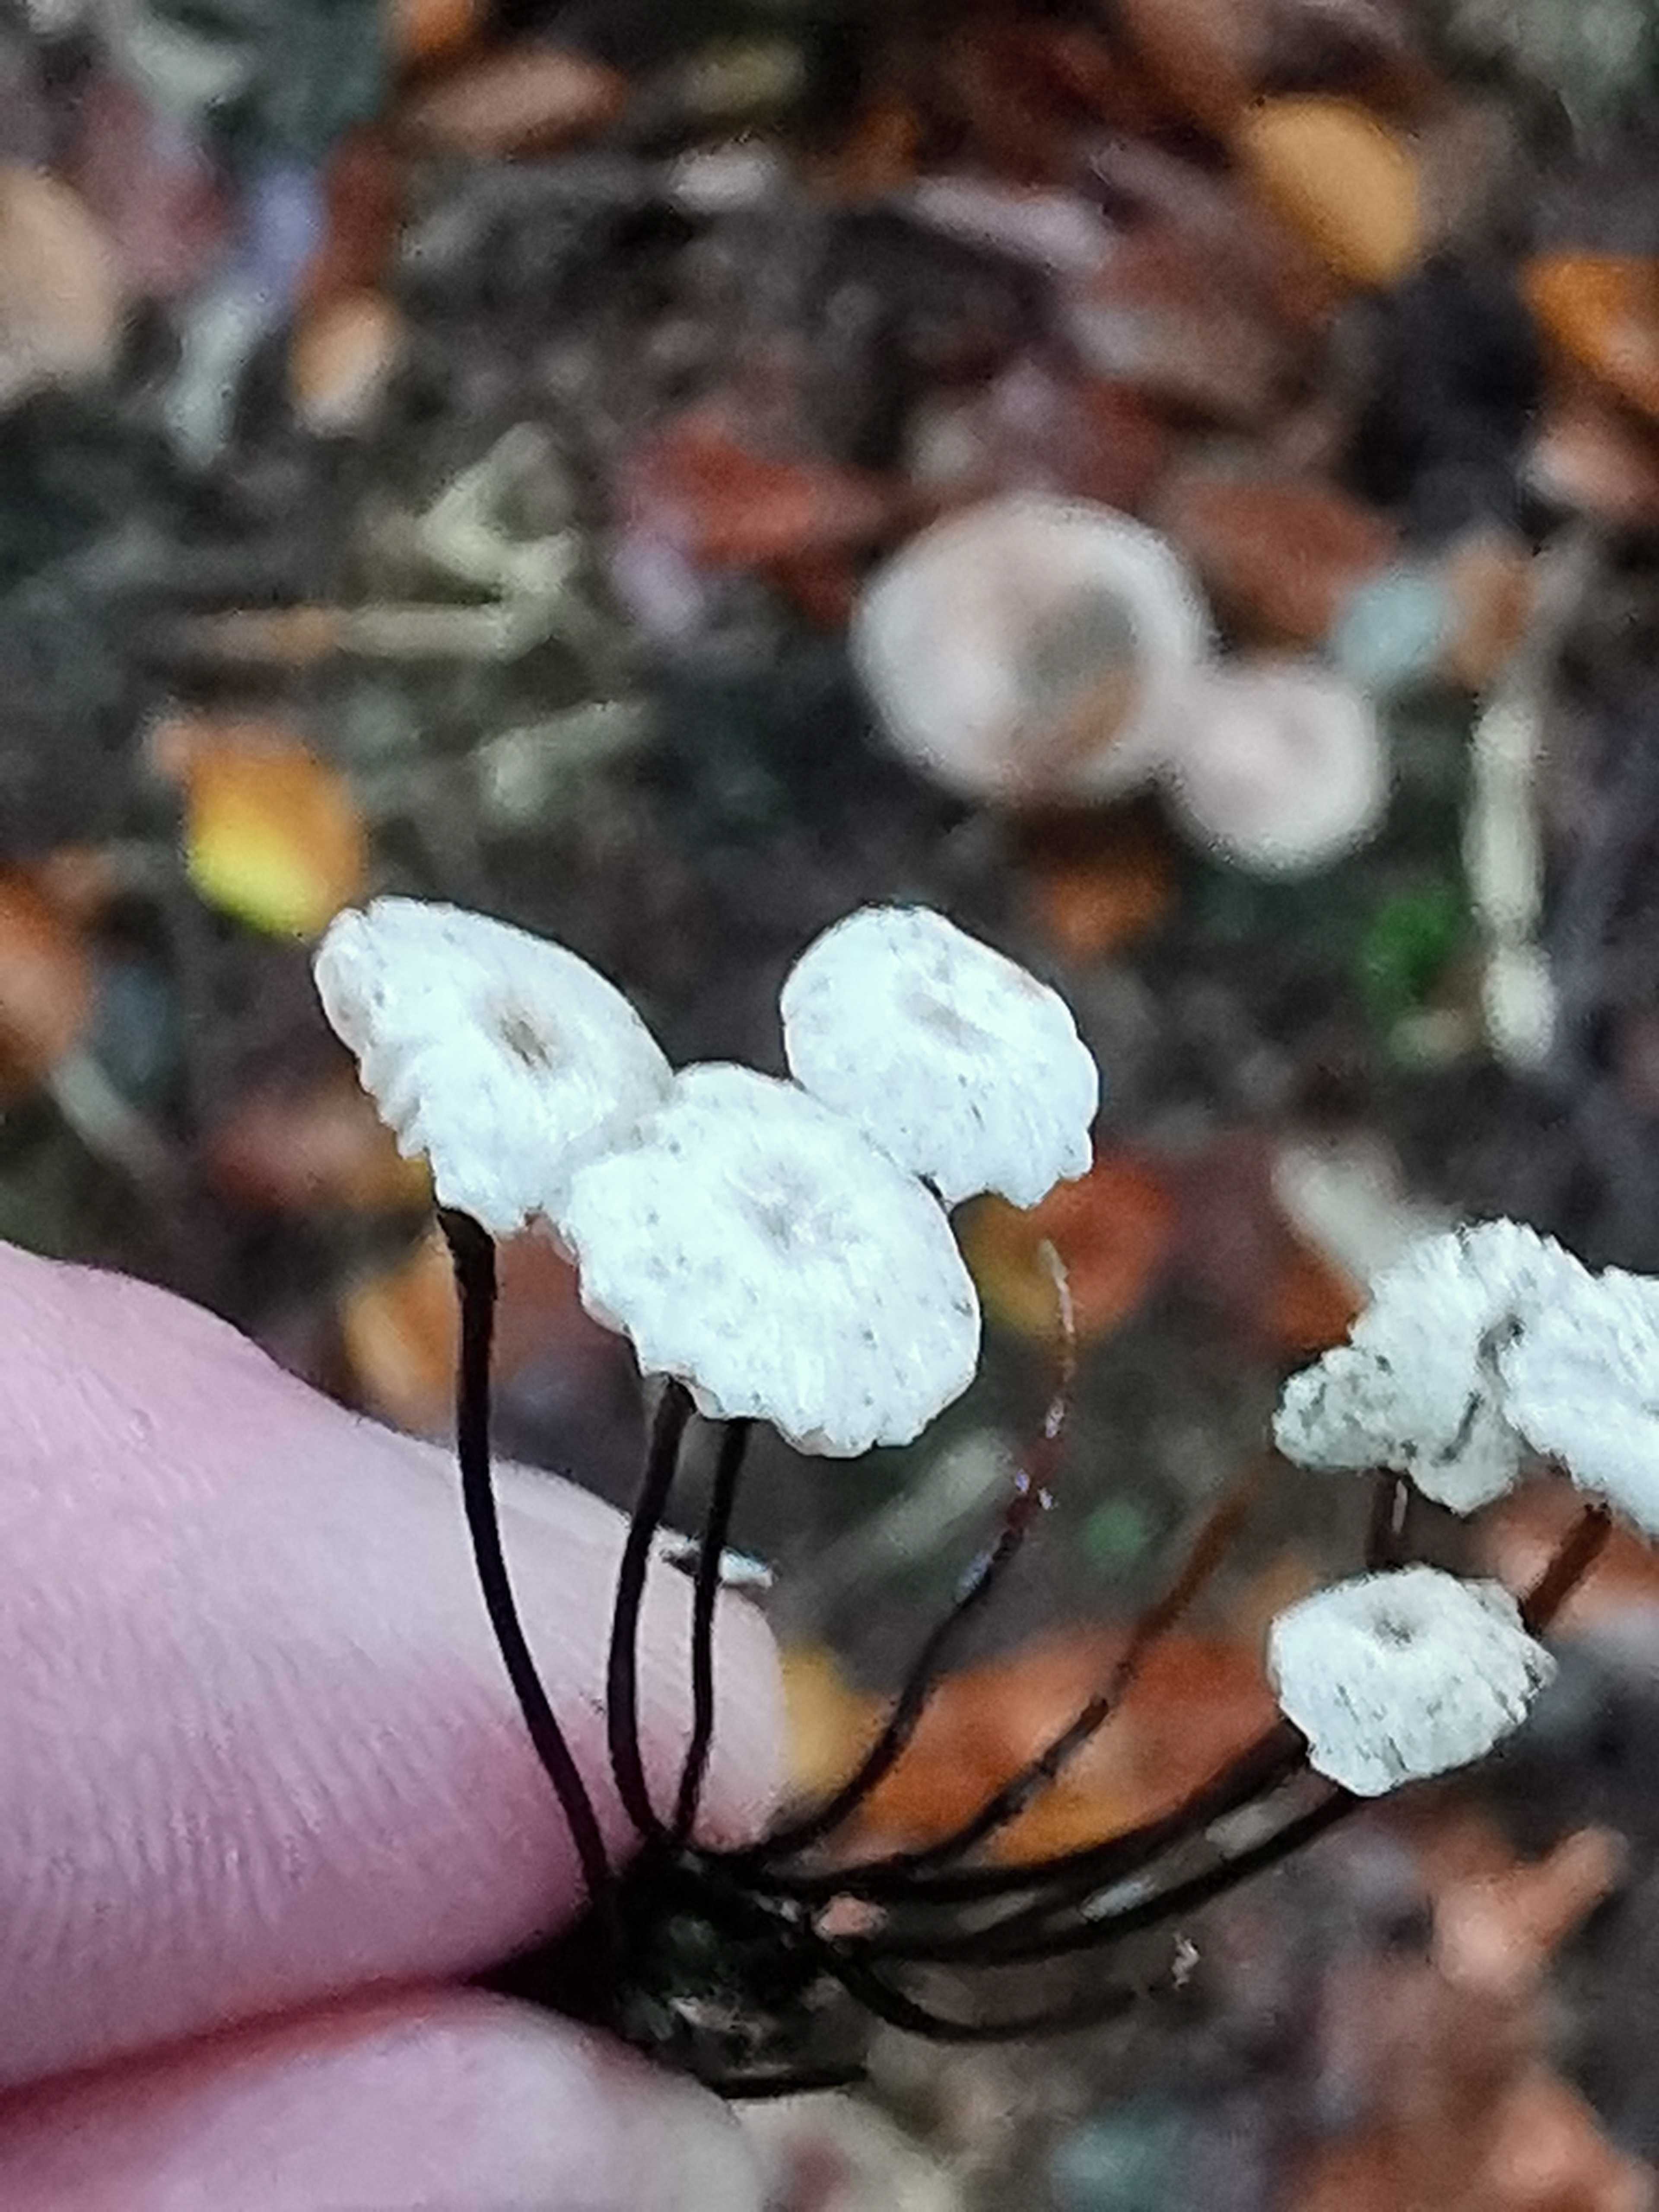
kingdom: Fungi
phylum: Basidiomycota
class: Agaricomycetes
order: Agaricales
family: Marasmiaceae
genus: Marasmius
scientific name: Marasmius rotula
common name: hjul-bruskhat
